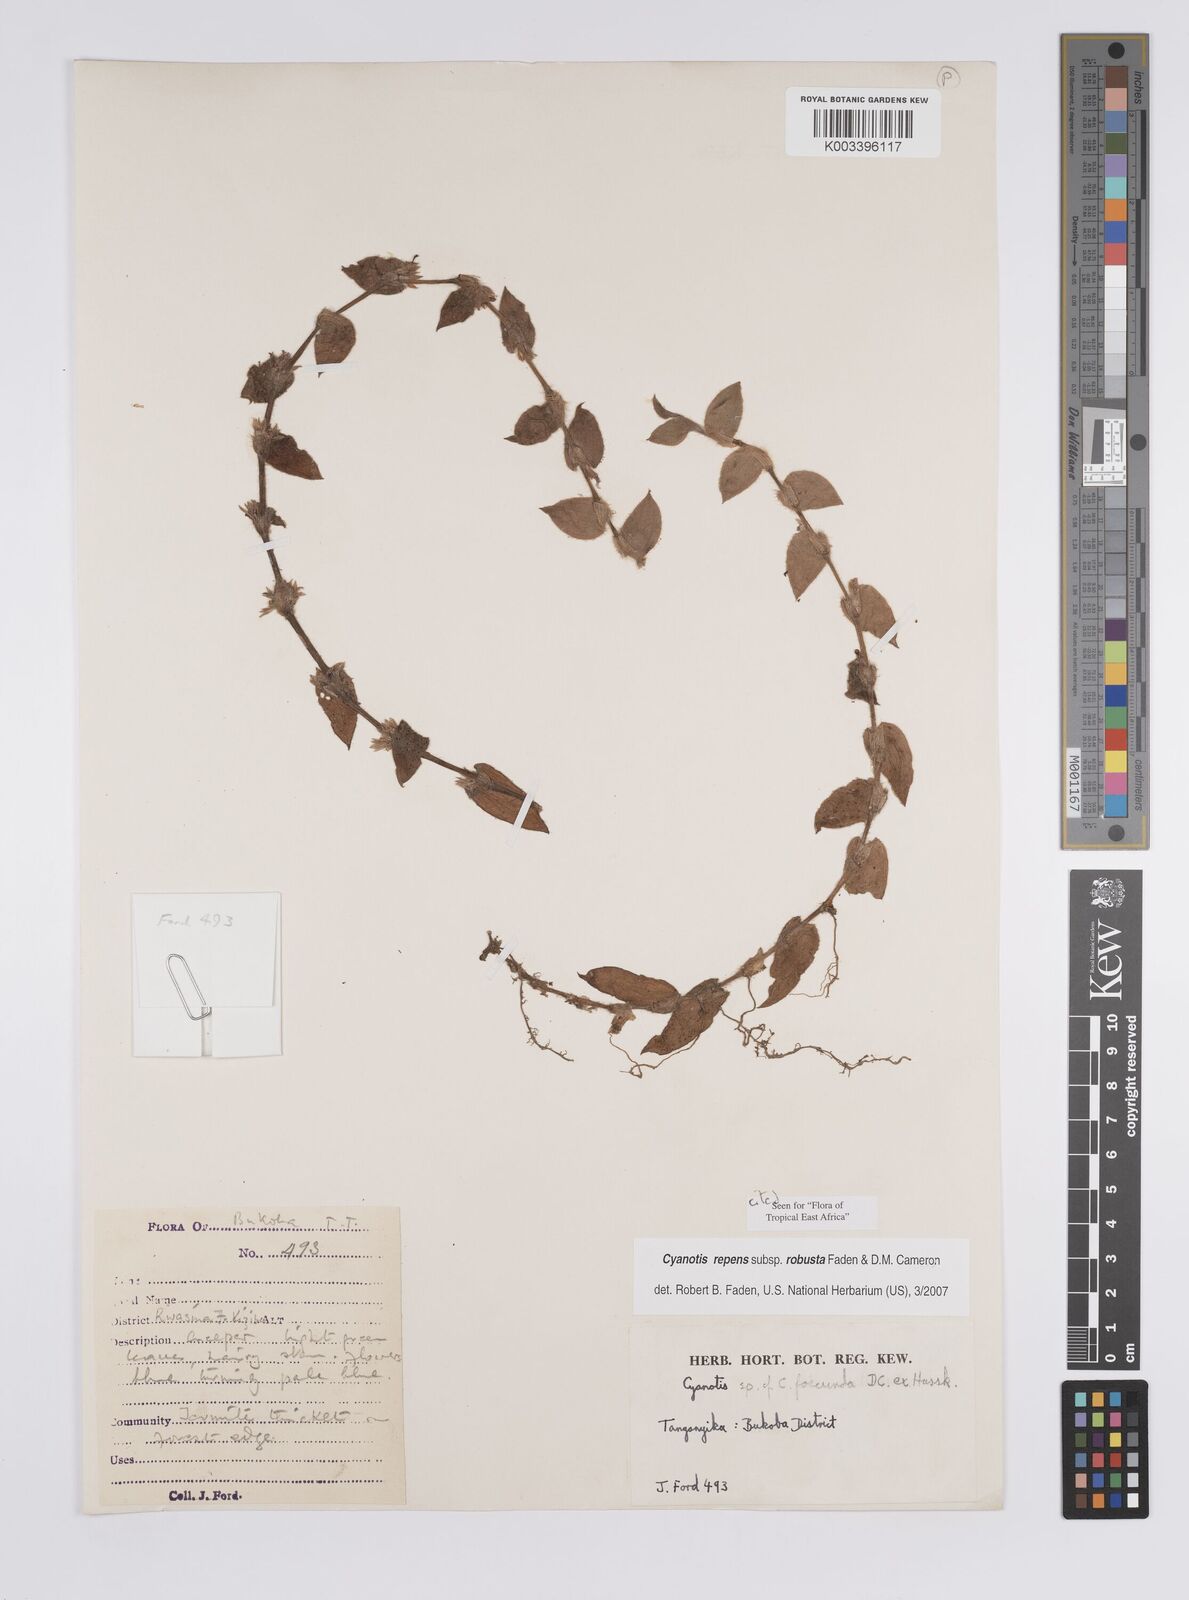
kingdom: Plantae
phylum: Tracheophyta
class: Liliopsida
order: Commelinales
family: Commelinaceae
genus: Cyanotis
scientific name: Cyanotis repens
